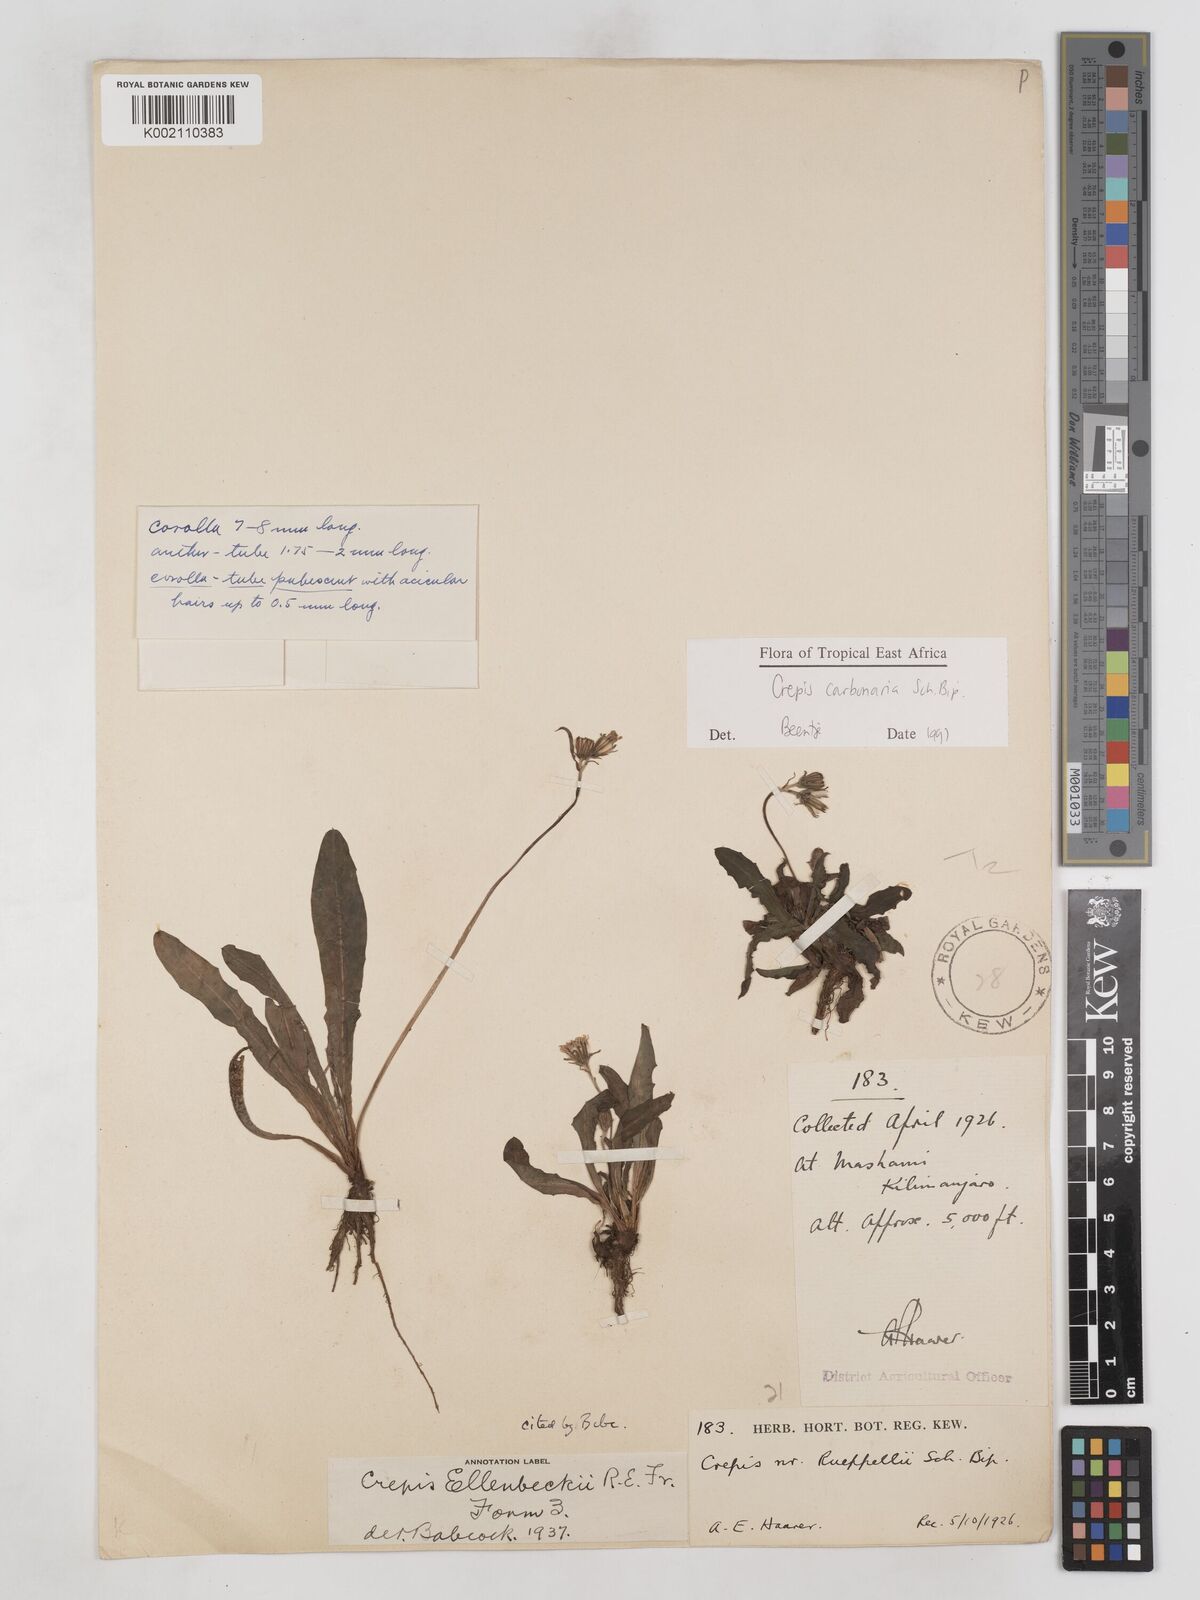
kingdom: Plantae
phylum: Tracheophyta
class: Magnoliopsida
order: Asterales
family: Asteraceae
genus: Crepis
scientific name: Crepis carbonaria
